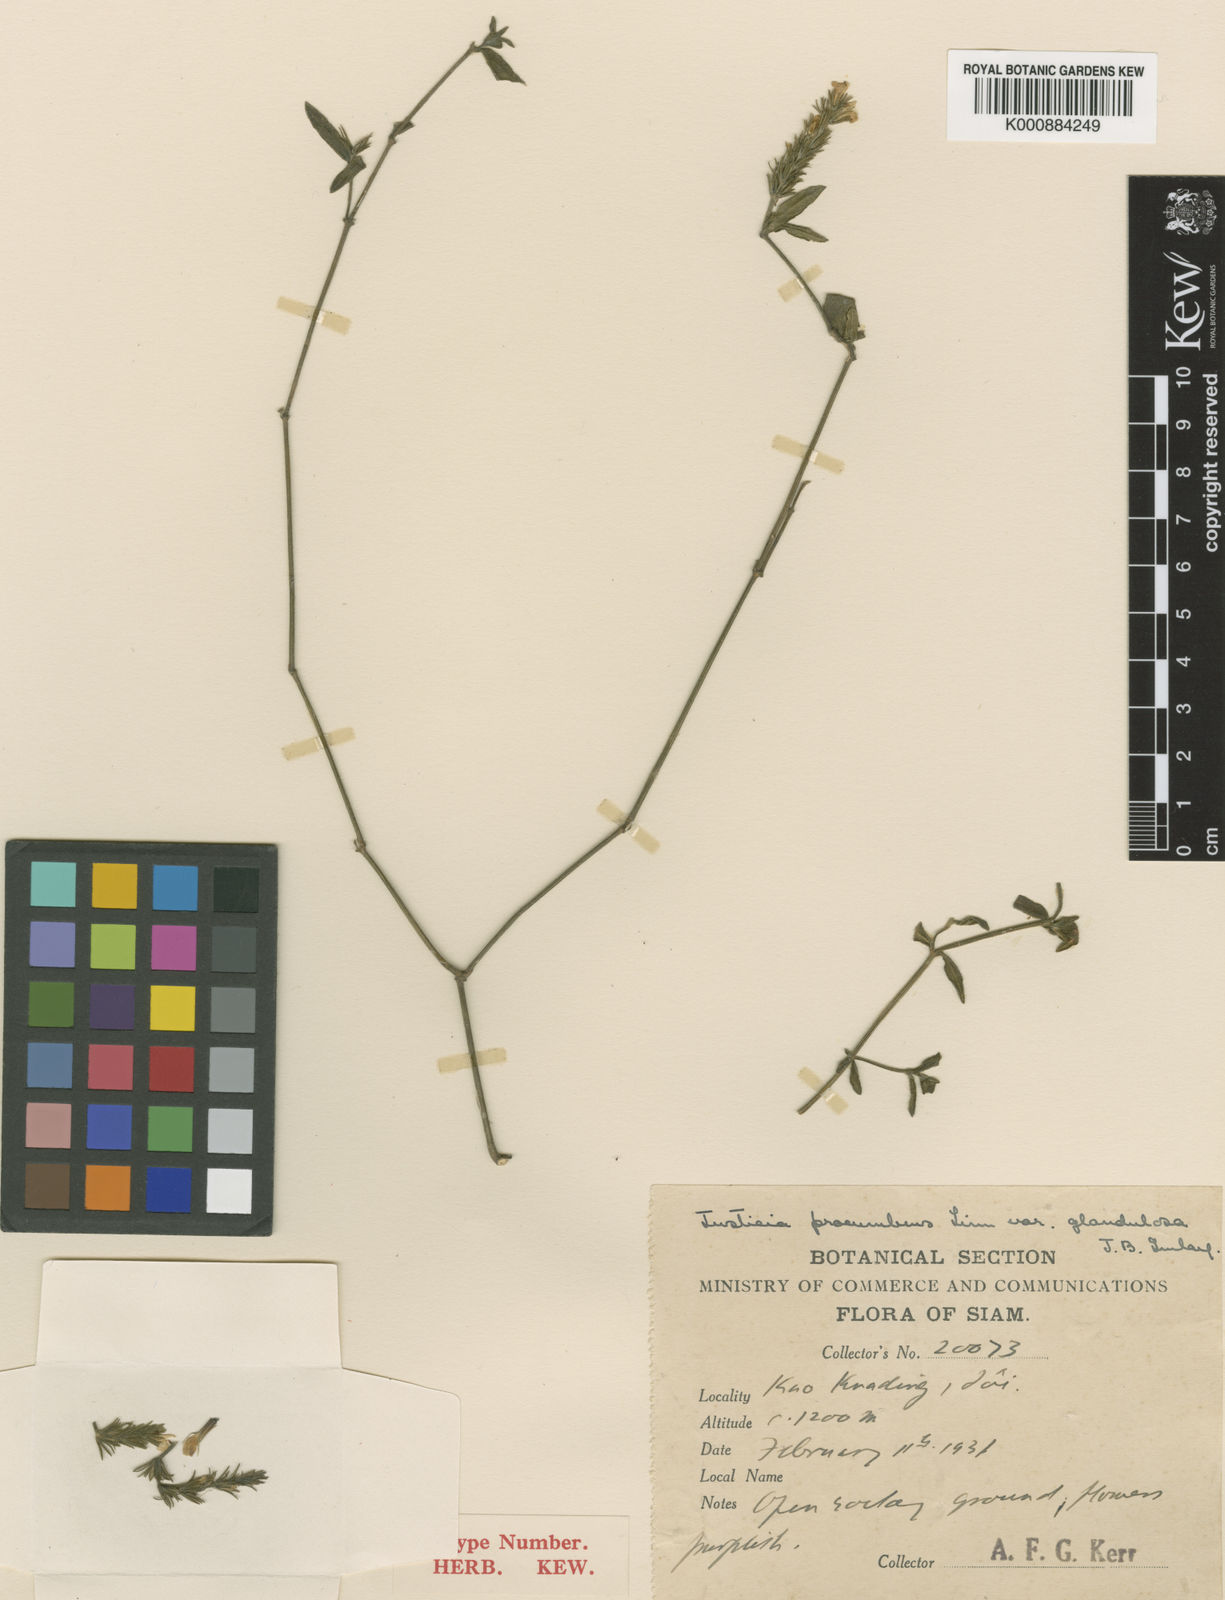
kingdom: Plantae
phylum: Tracheophyta
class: Magnoliopsida
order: Lamiales
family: Acanthaceae
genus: Rostellularia
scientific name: Rostellularia procumbens
